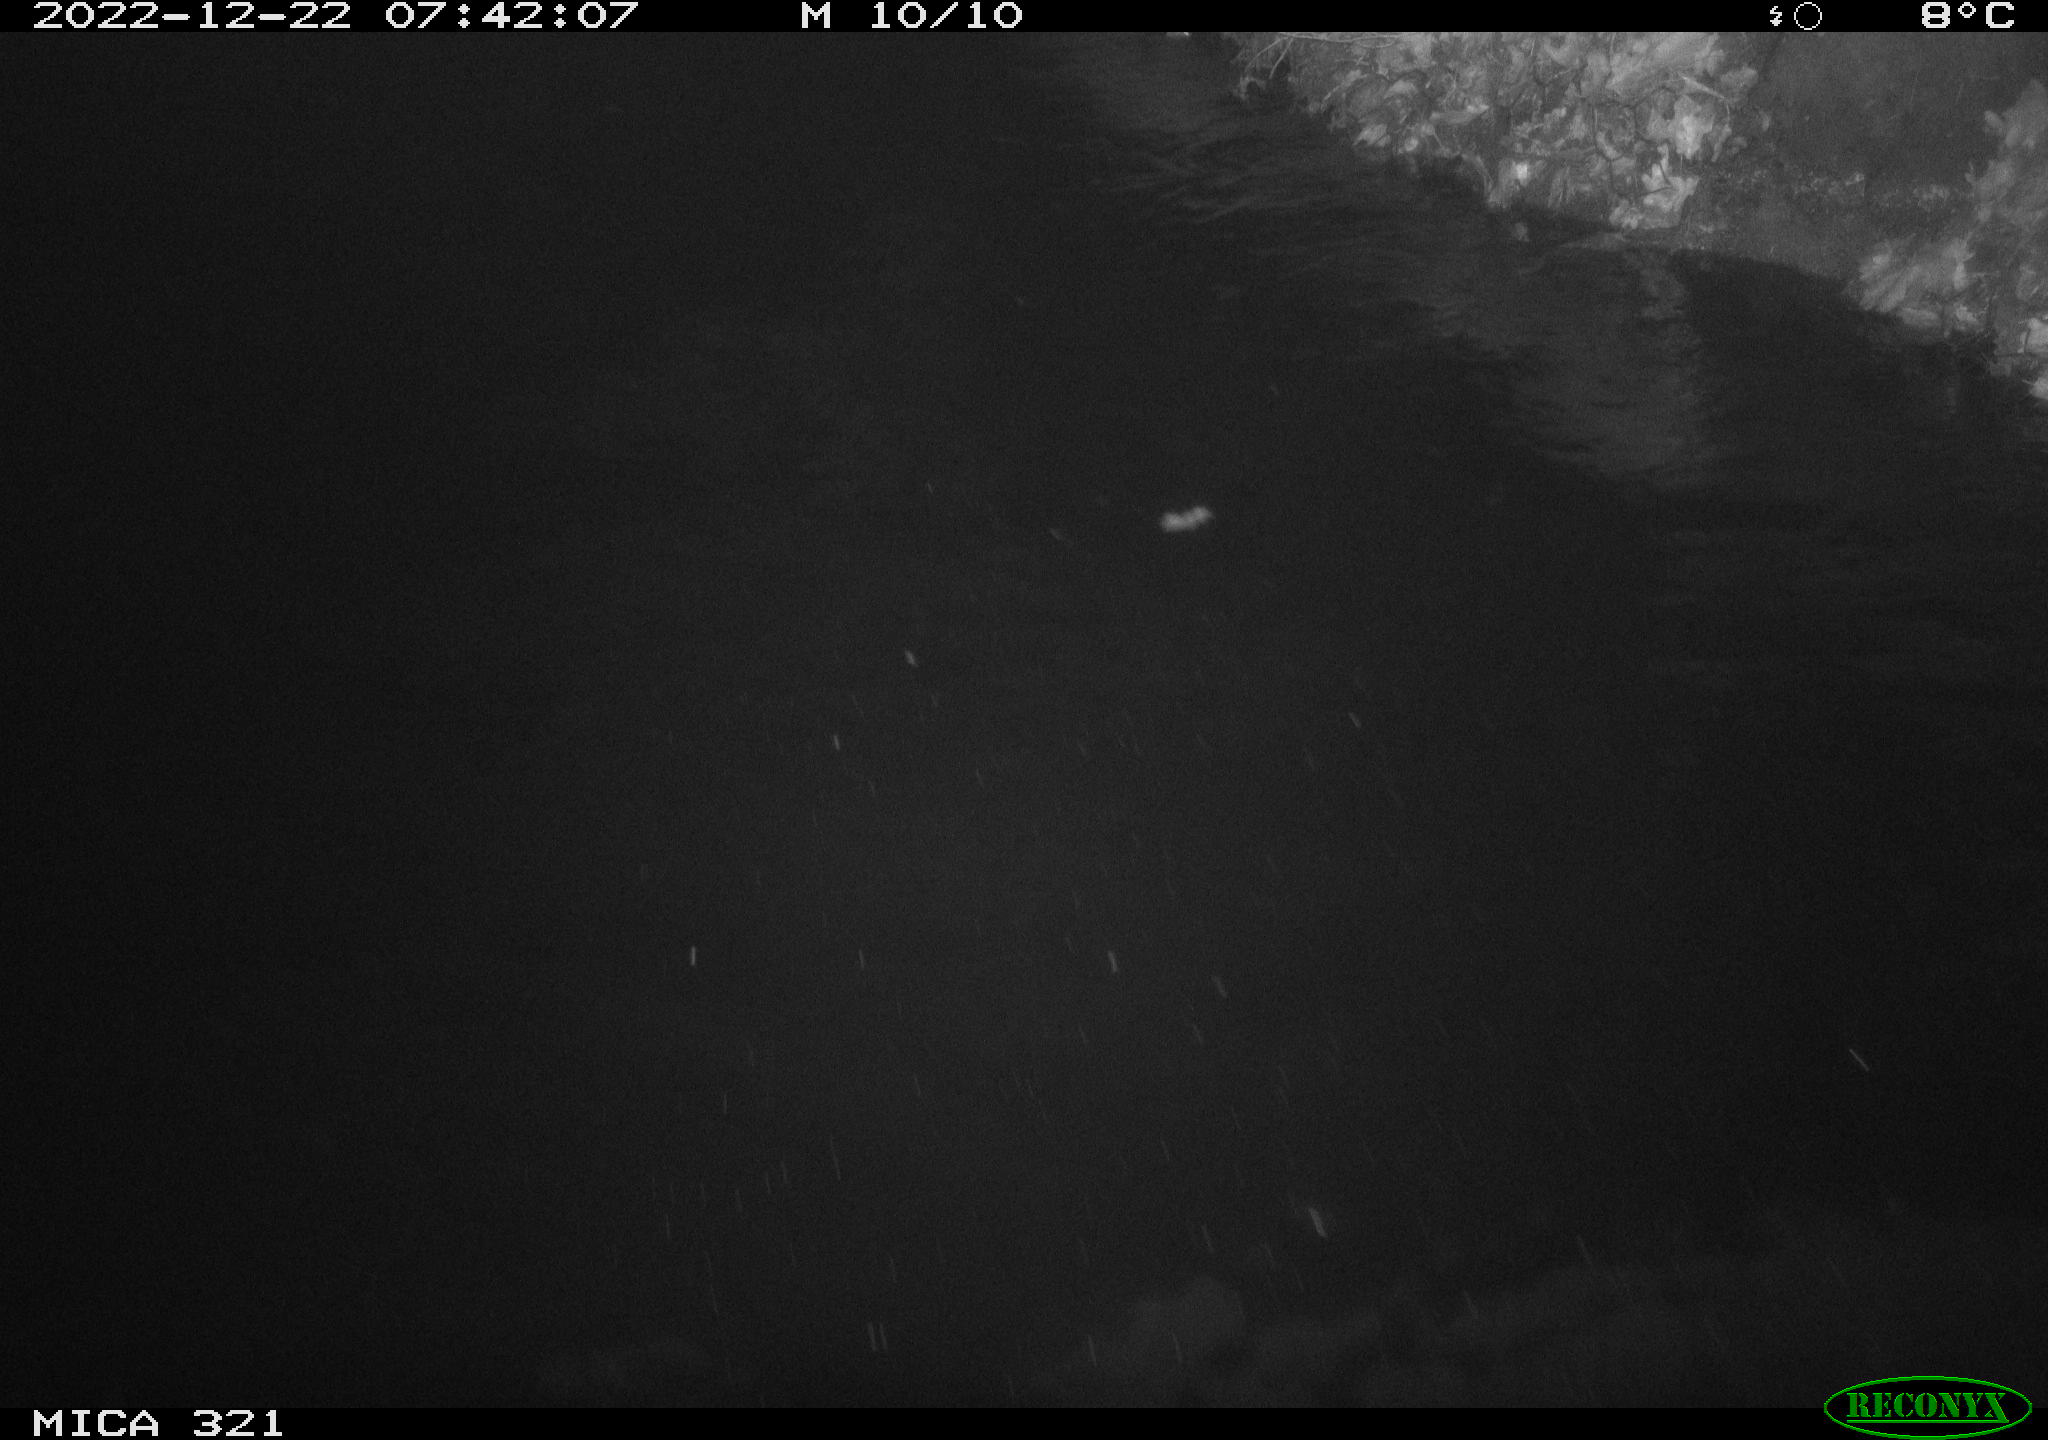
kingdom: Animalia
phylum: Chordata
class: Aves
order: Anseriformes
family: Anatidae
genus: Anas
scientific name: Anas
